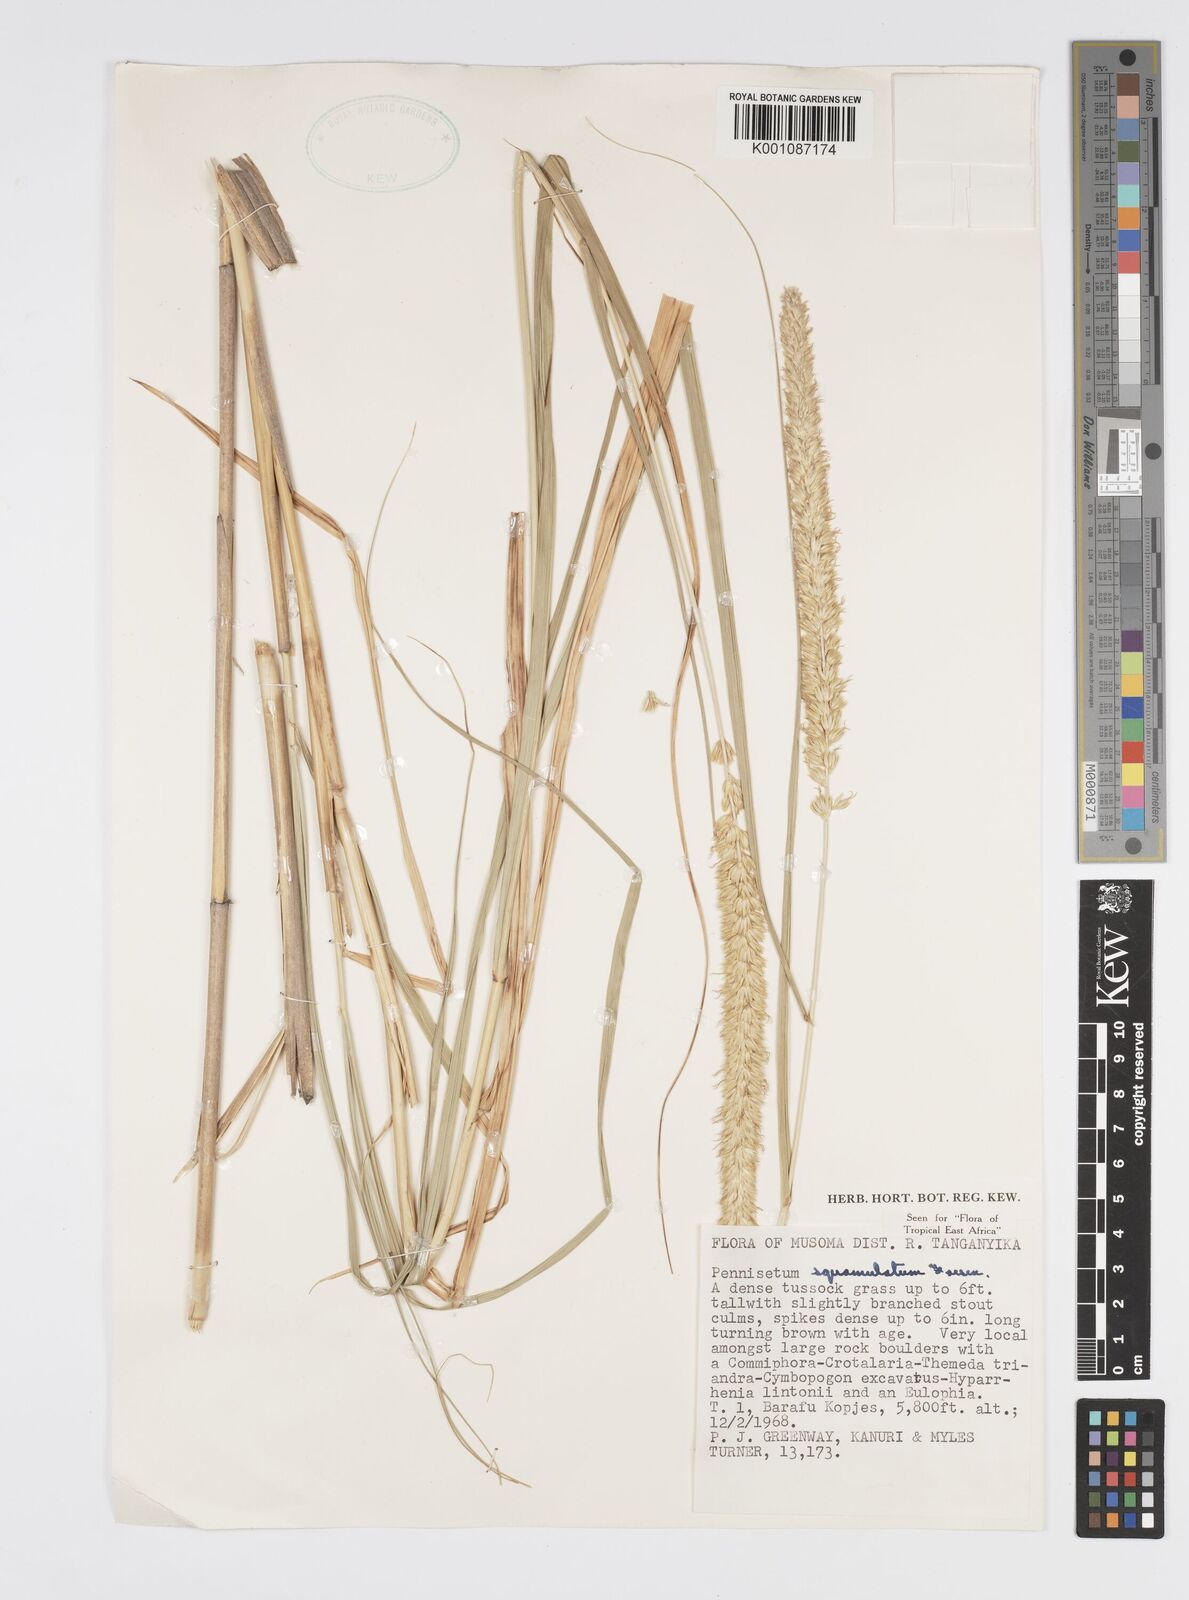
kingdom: Plantae
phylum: Tracheophyta
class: Liliopsida
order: Poales
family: Poaceae
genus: Cenchrus
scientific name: Cenchrus squamulatus
